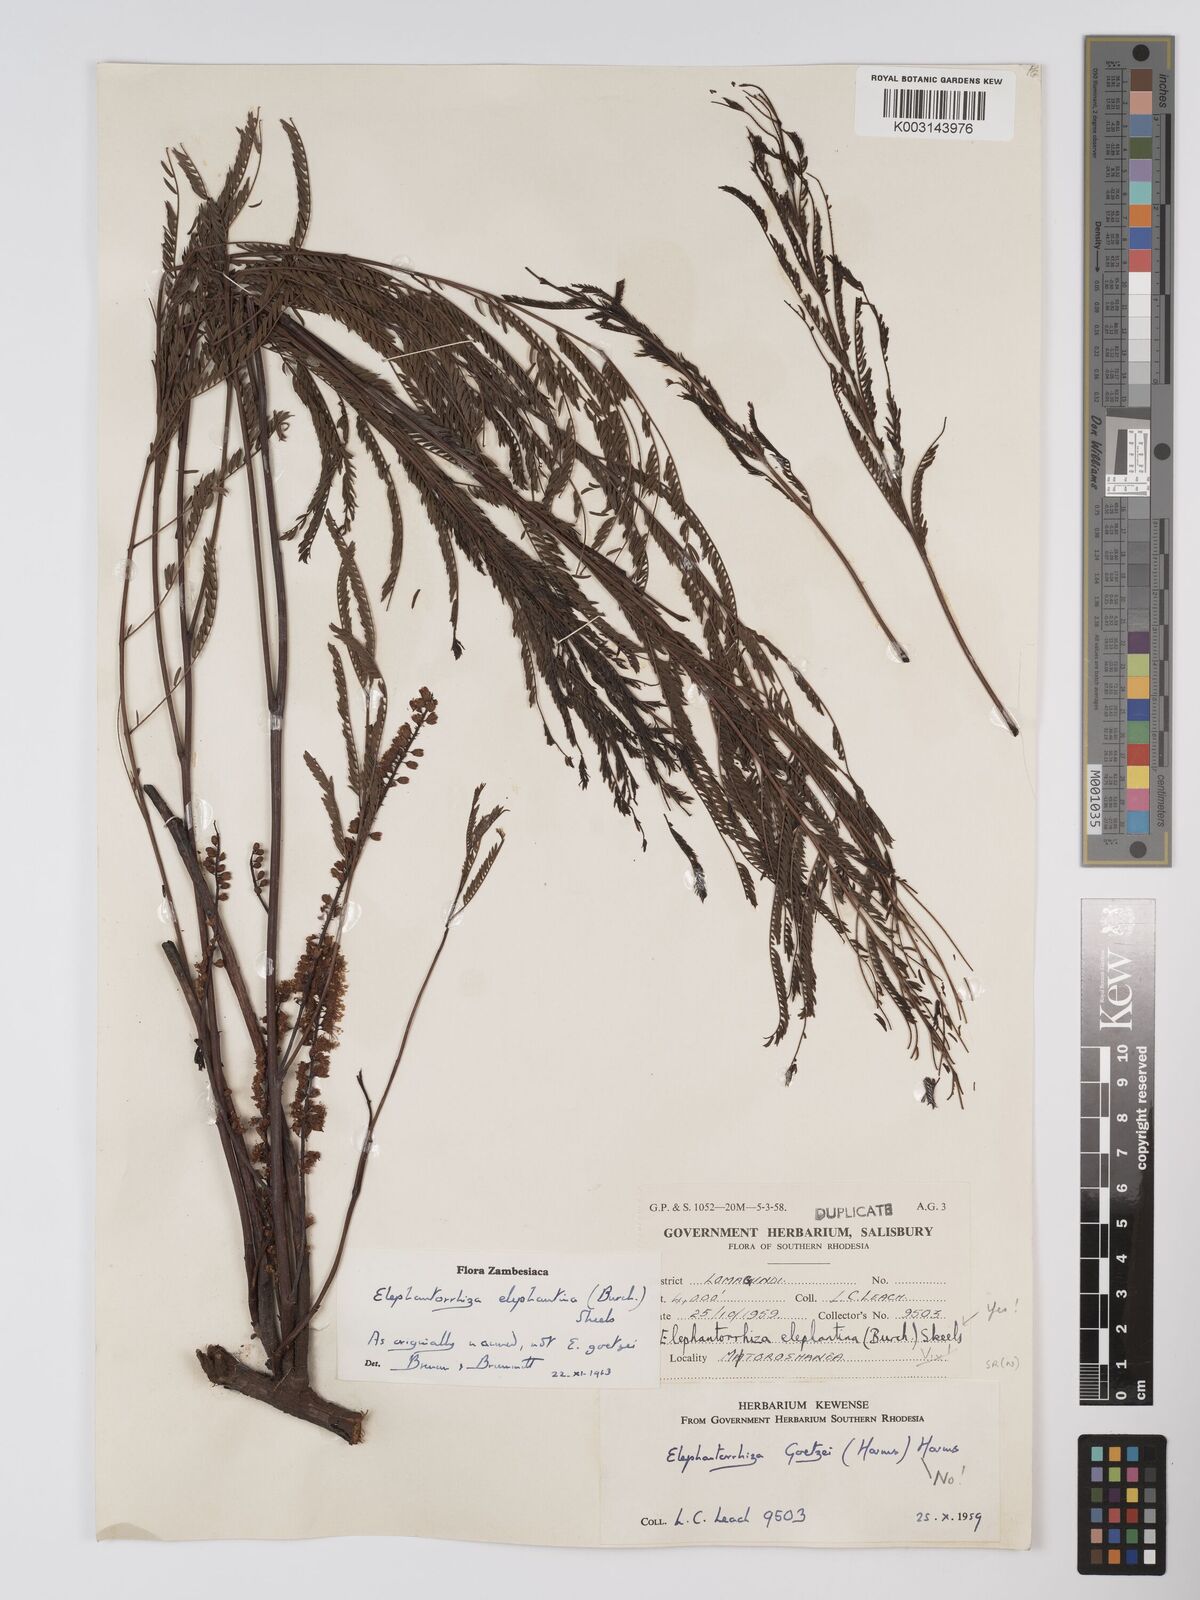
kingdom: Plantae
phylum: Tracheophyta
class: Magnoliopsida
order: Fabales
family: Fabaceae
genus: Elephantorrhiza
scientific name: Elephantorrhiza elephantina
